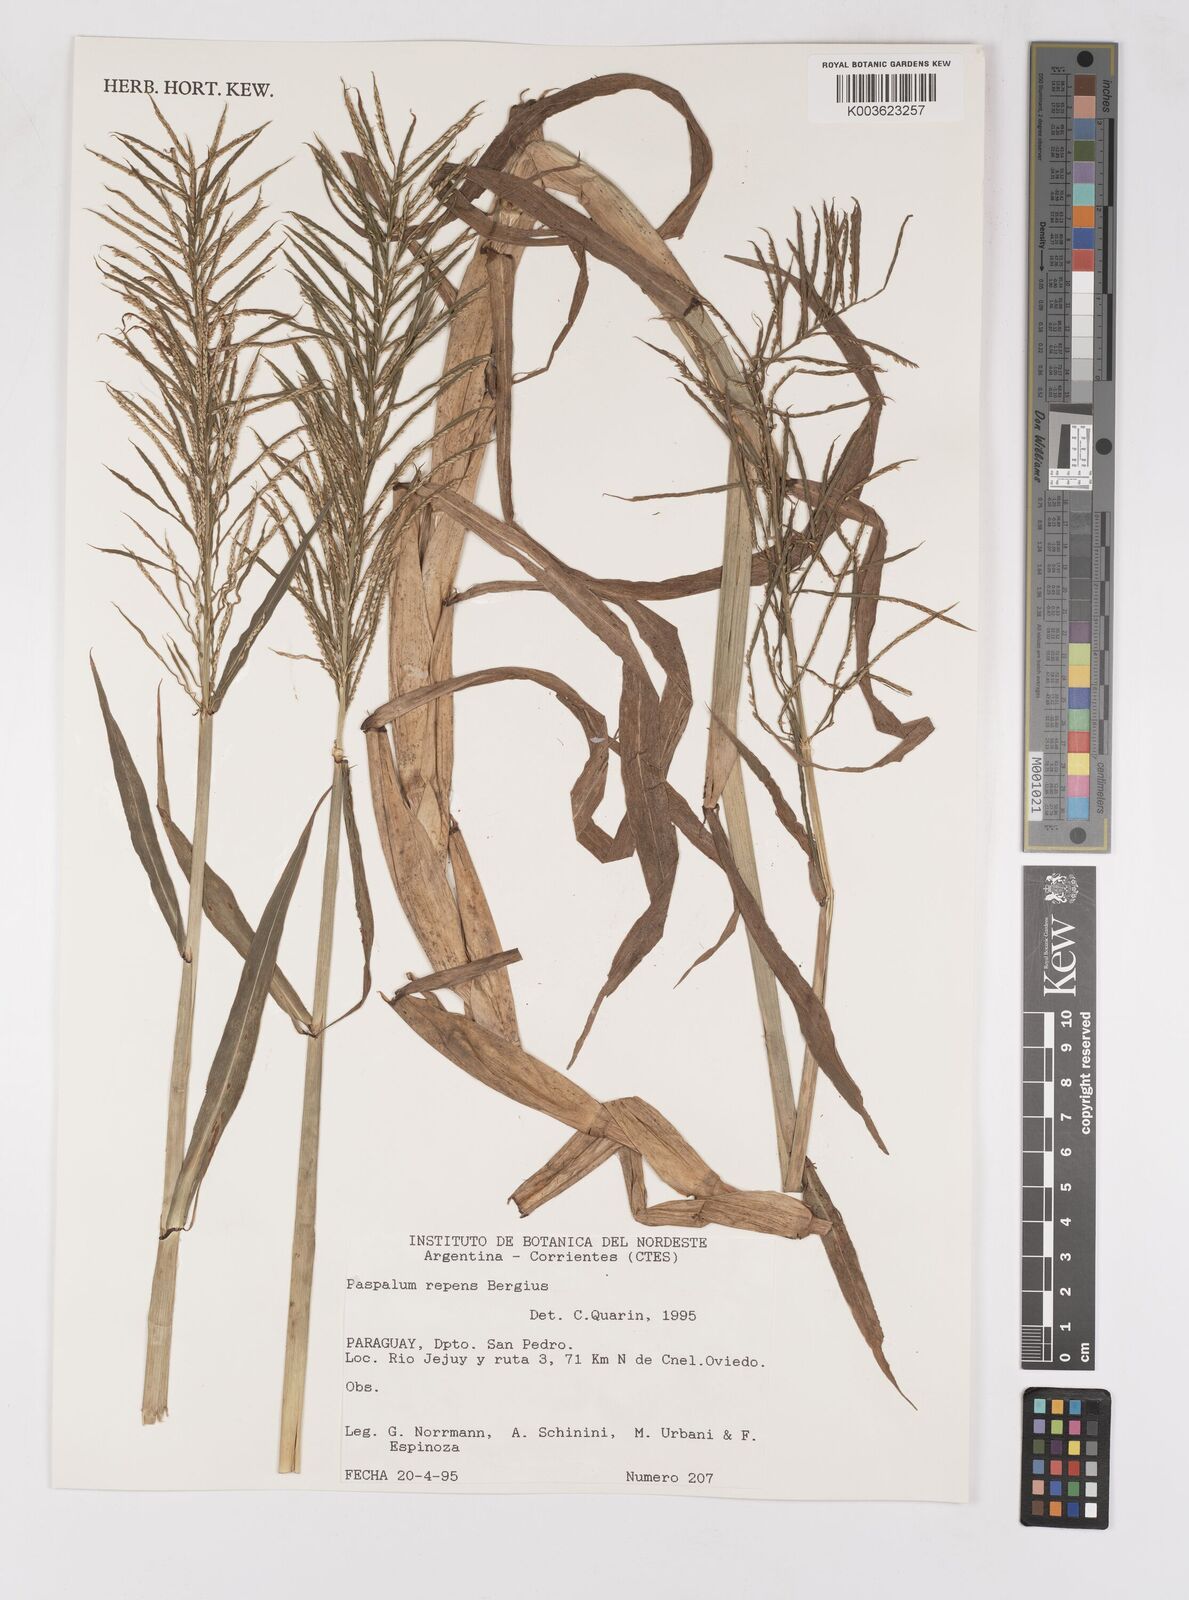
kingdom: Plantae
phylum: Tracheophyta
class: Liliopsida
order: Poales
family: Poaceae
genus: Paspalum
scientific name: Paspalum repens
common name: Water paspalum
